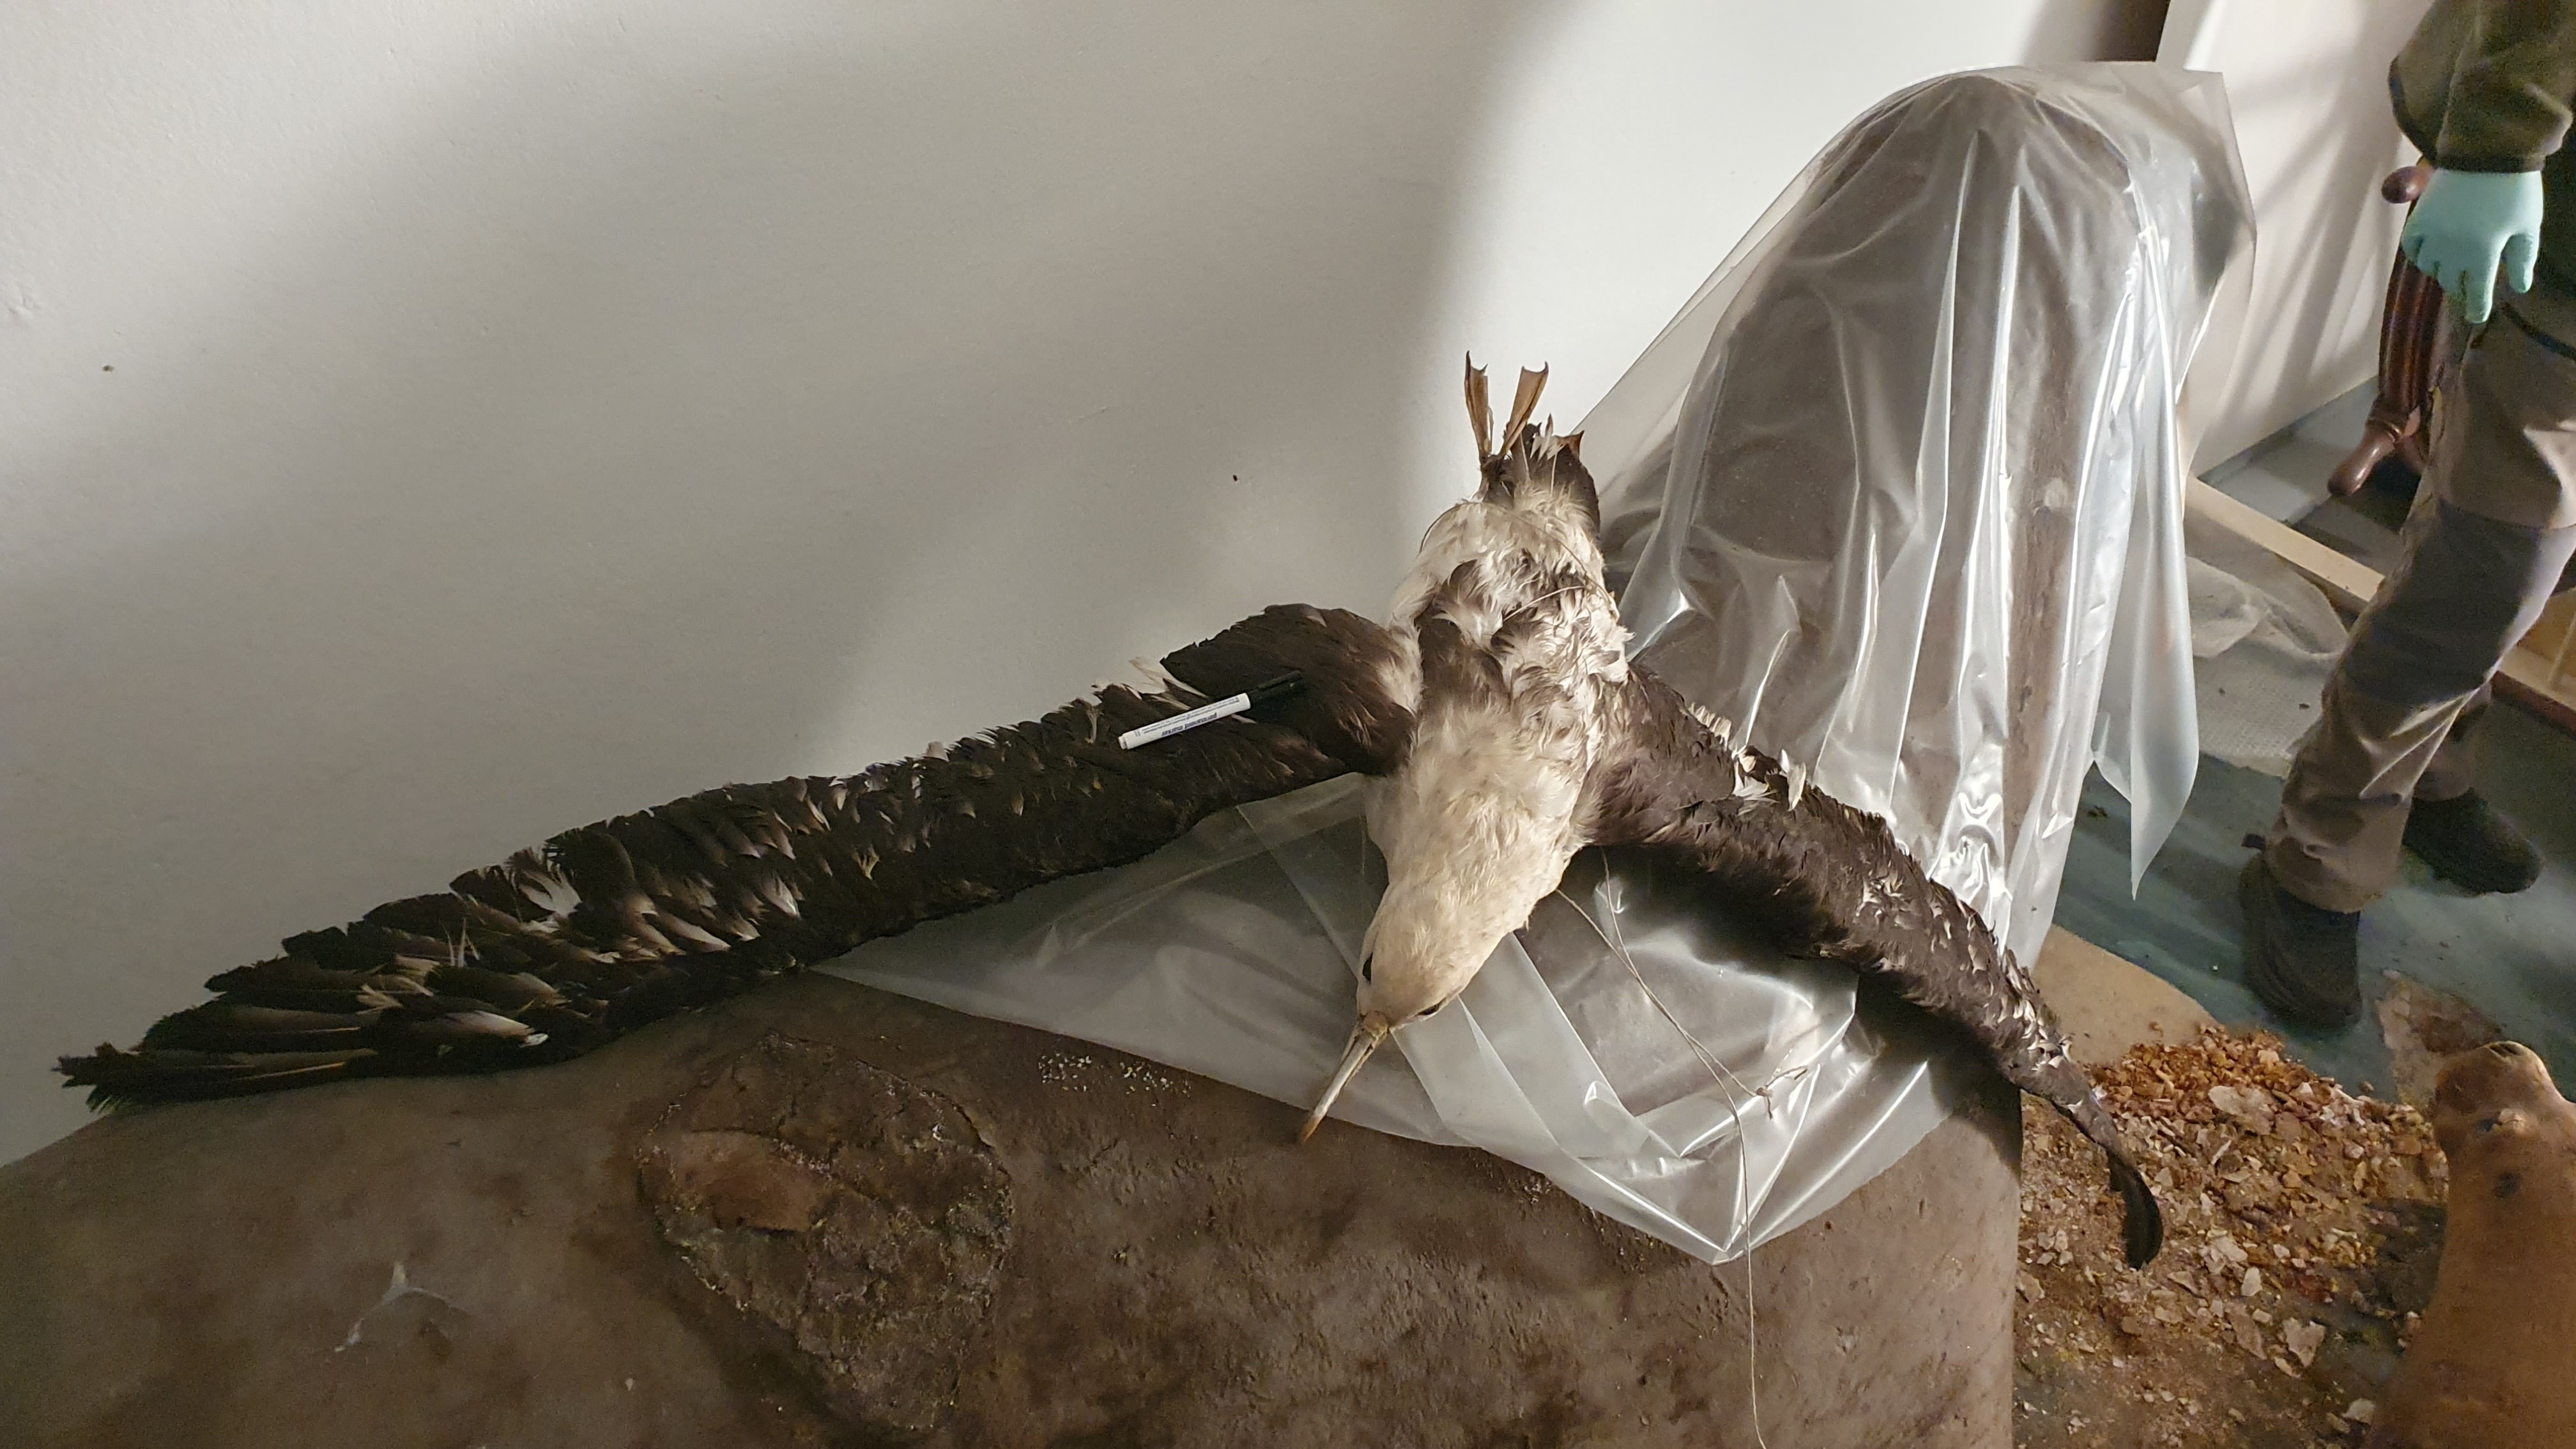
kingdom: Animalia
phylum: Chordata
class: Aves
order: Procellariiformes
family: Diomedeidae
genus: Thalassarche
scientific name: Thalassarche melanophris
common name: Black-browed albatross
